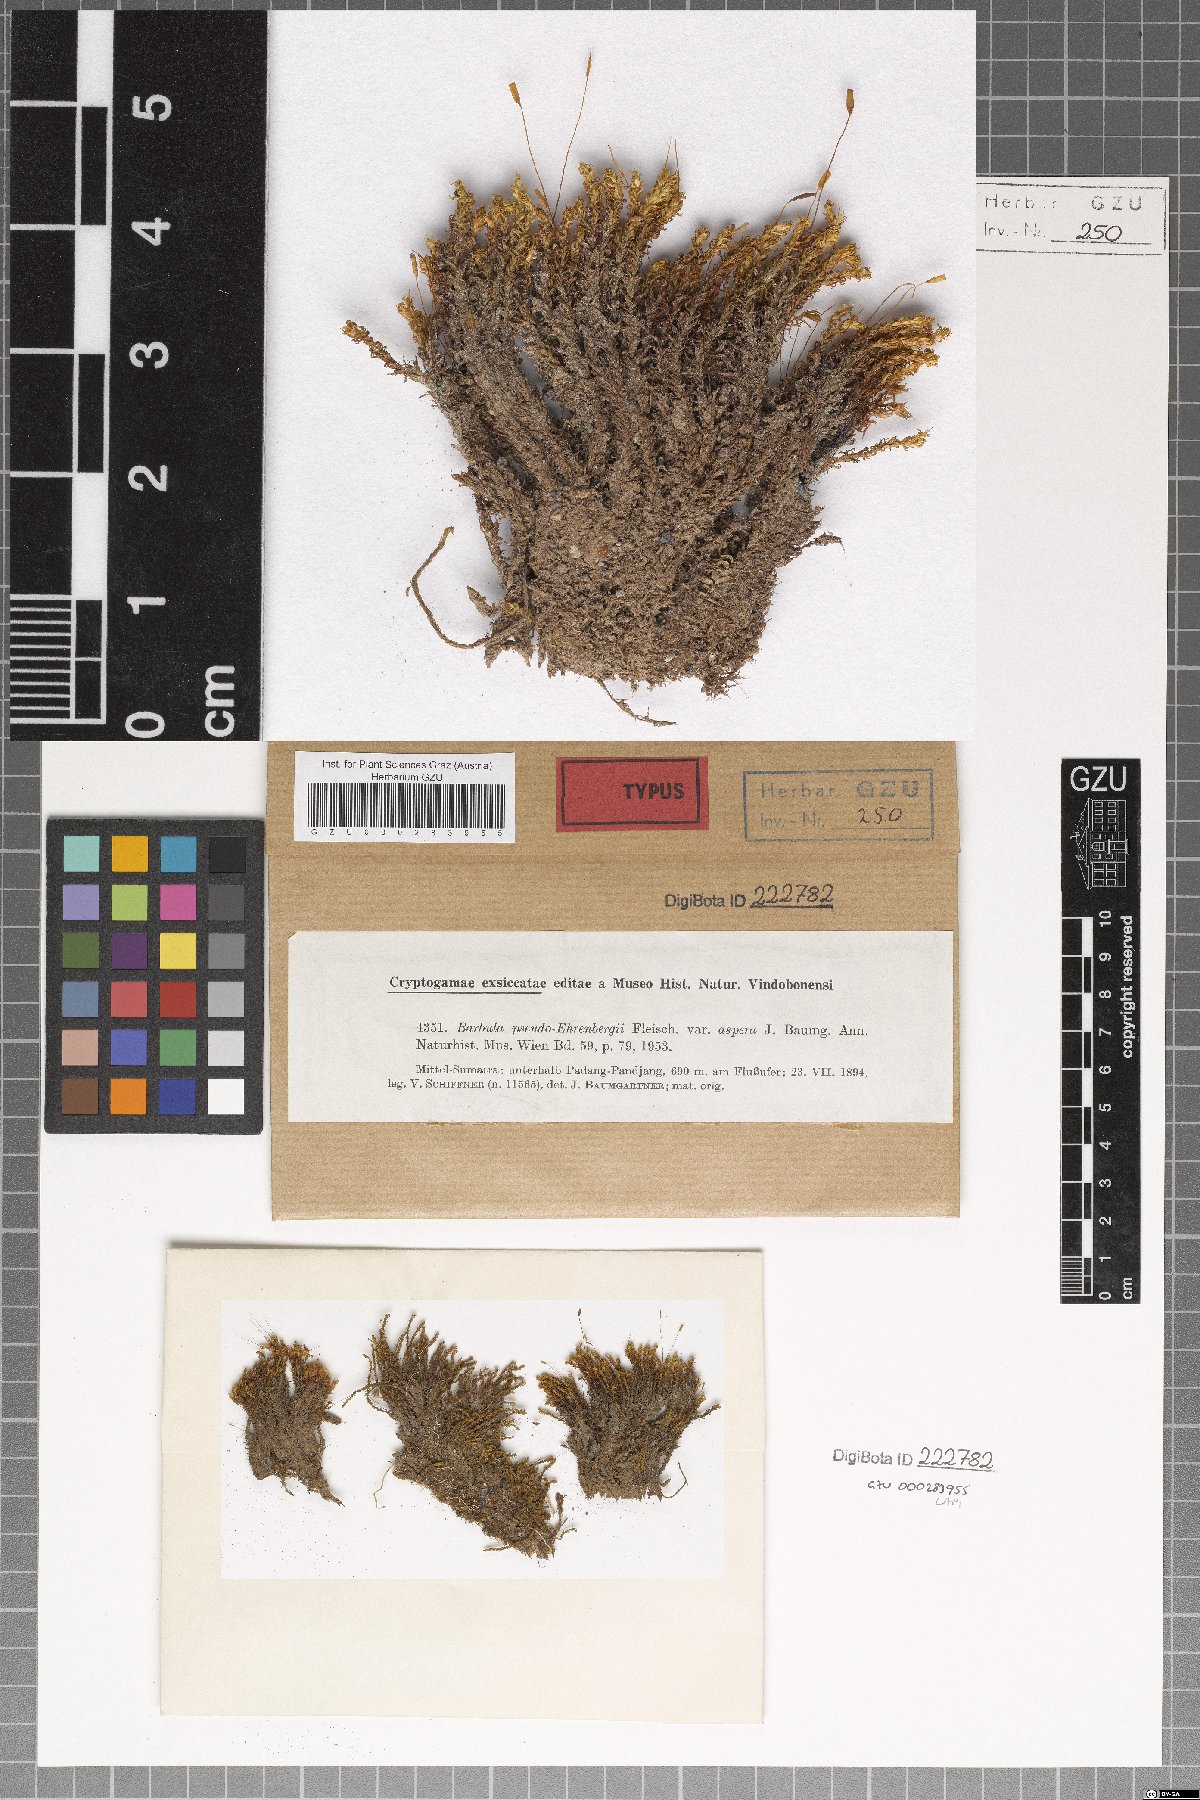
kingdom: Plantae
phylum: Bryophyta
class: Bryopsida
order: Pottiales
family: Pottiaceae
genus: Hydrogonium
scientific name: Hydrogonium pseudoehrenbergii
